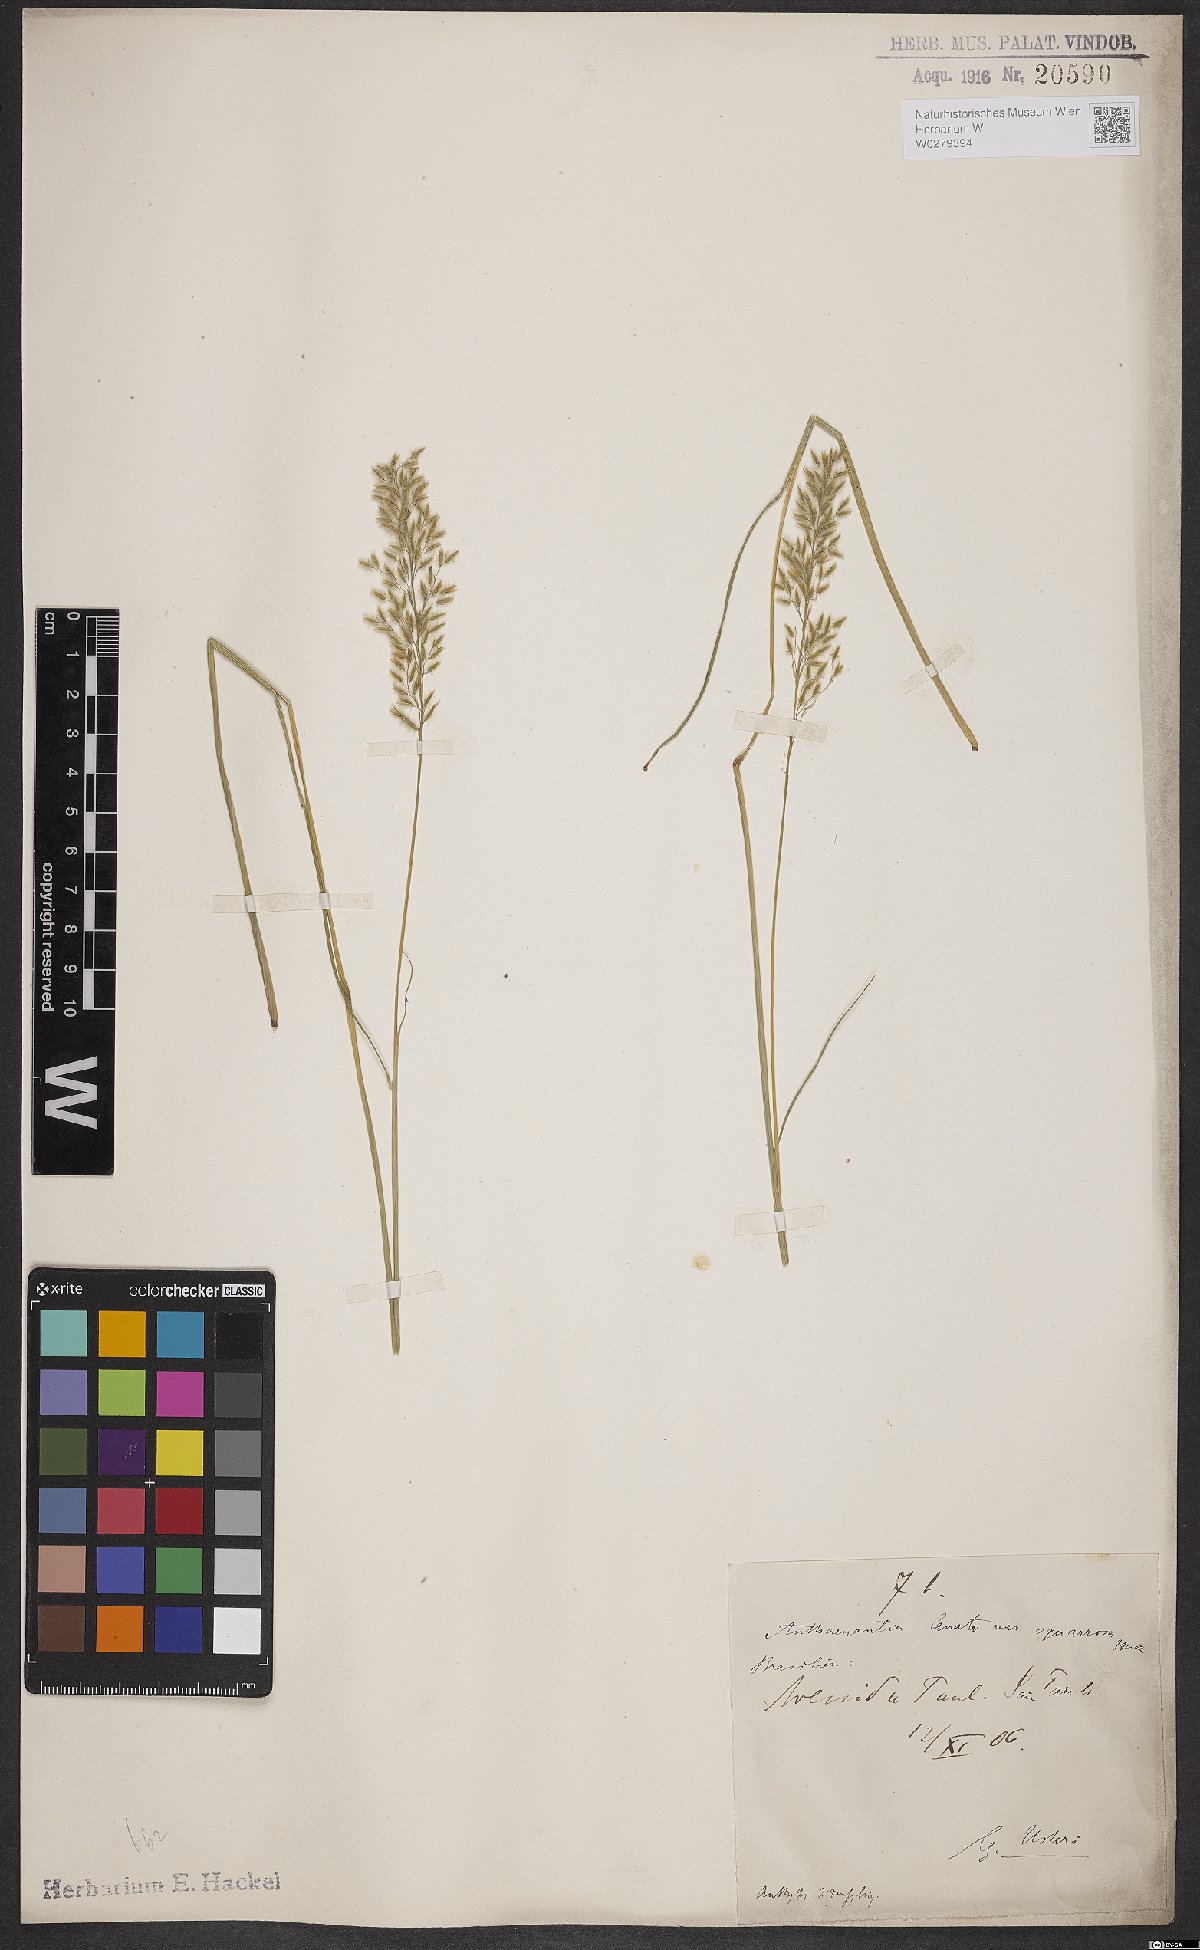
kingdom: Plantae
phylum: Tracheophyta
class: Liliopsida
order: Poales
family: Poaceae
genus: Anthaenantia
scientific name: Anthaenantia lanata
